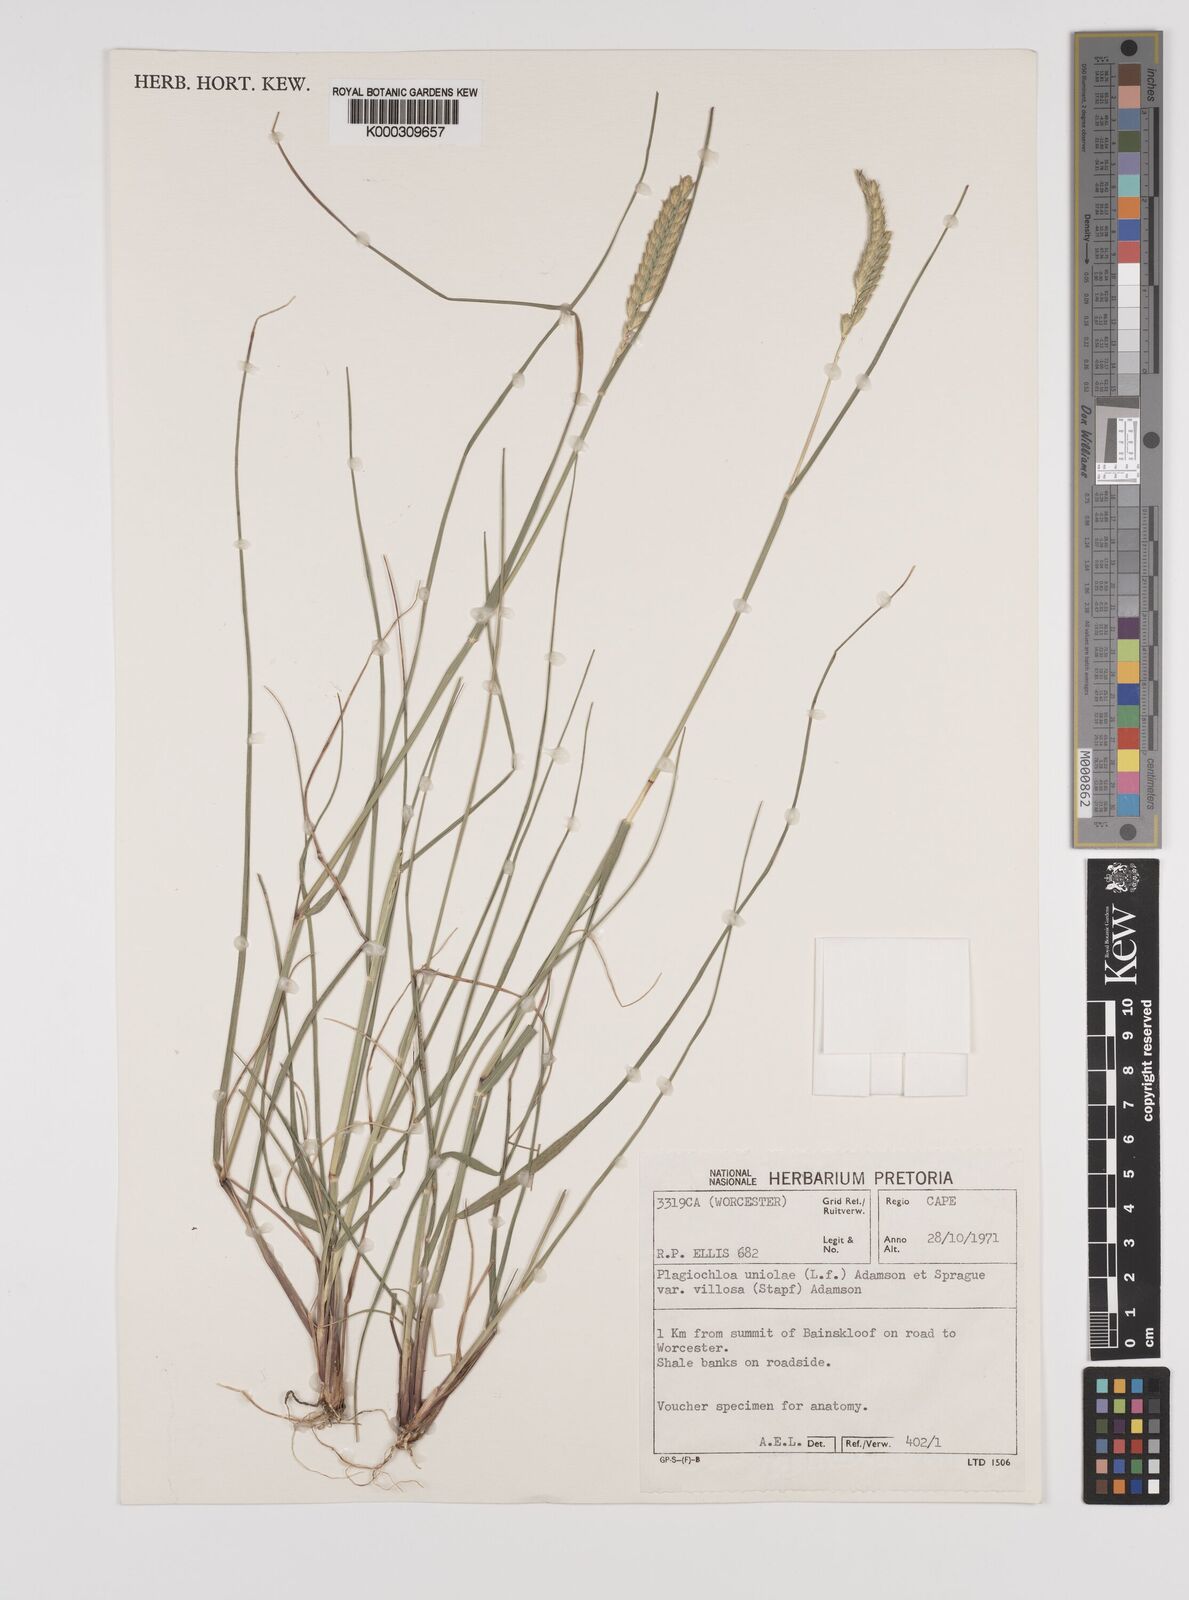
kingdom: Plantae
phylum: Tracheophyta
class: Liliopsida
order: Poales
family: Poaceae
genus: Tribolium
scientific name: Tribolium uniolae
